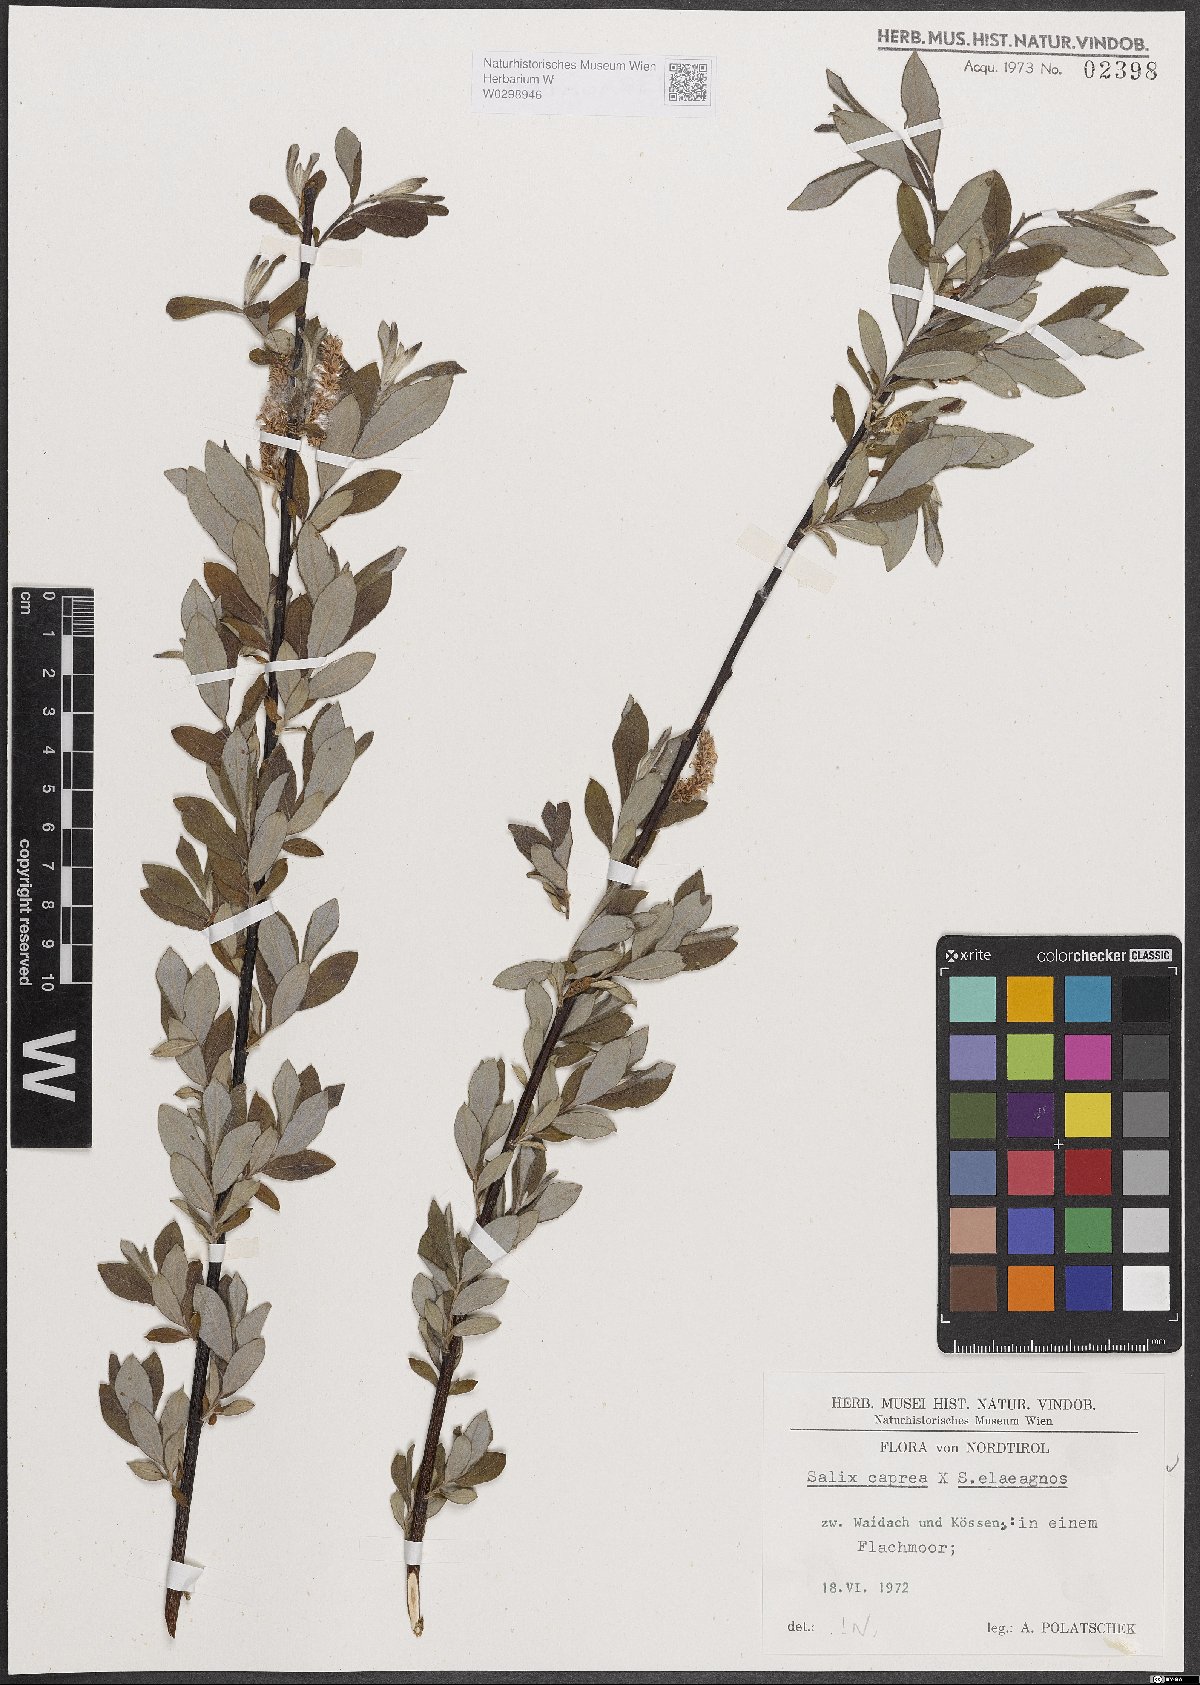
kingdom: Plantae
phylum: Tracheophyta
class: Magnoliopsida
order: Malpighiales
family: Salicaceae
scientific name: Salicaceae
